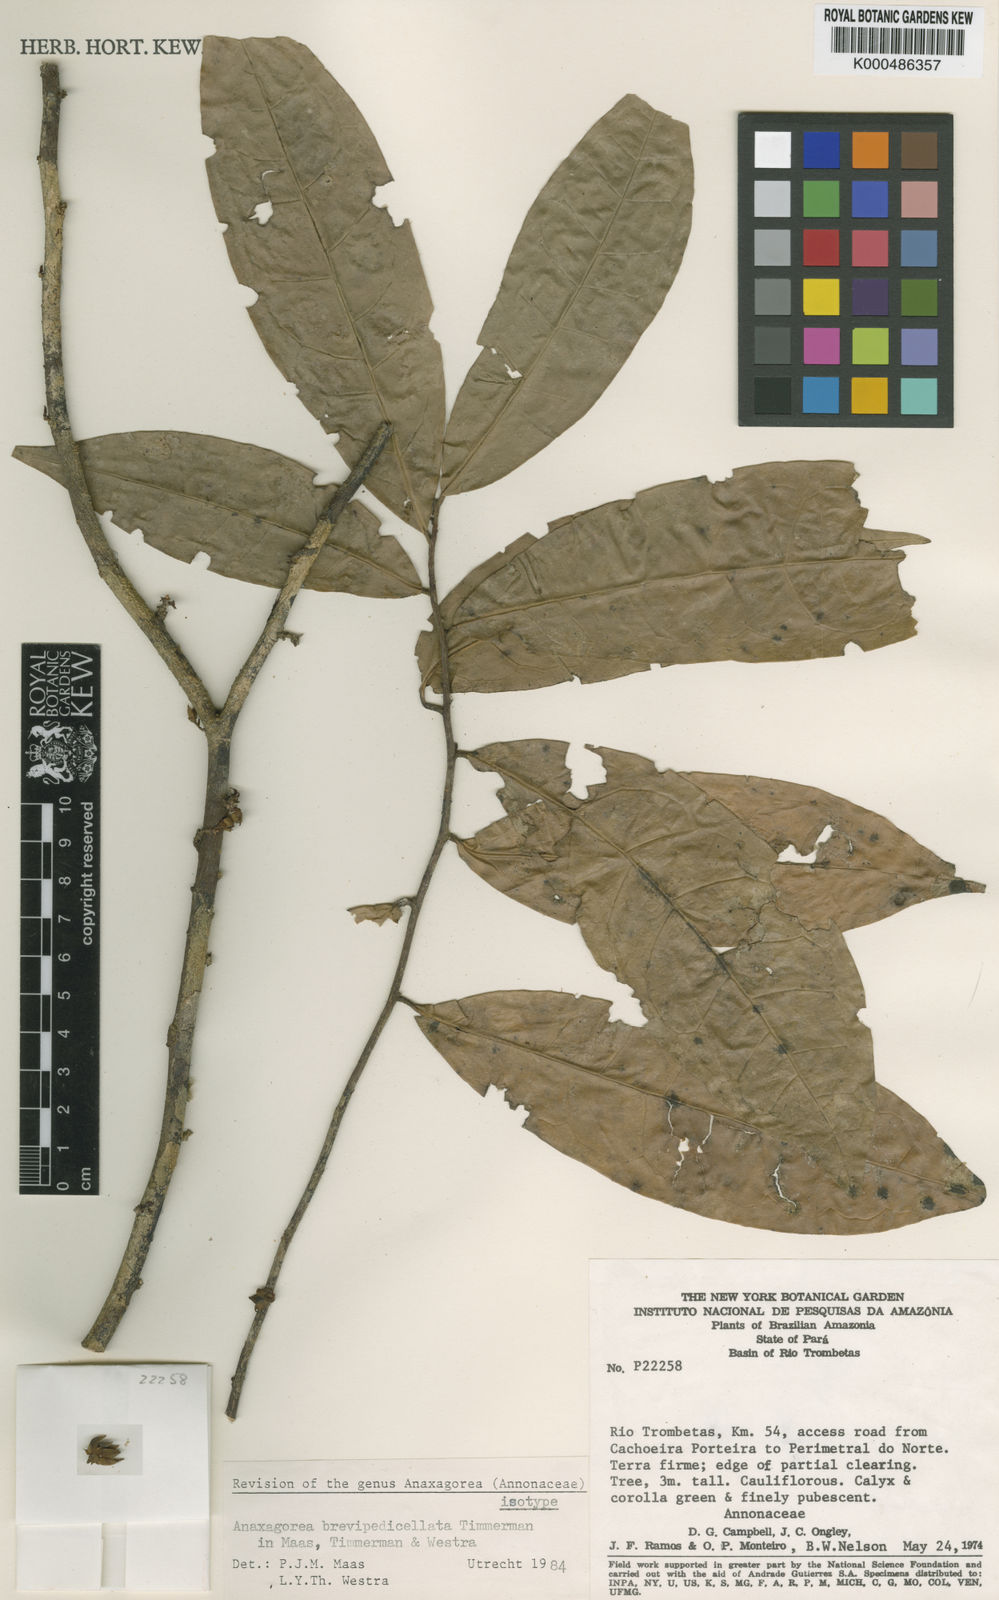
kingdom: Plantae
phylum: Tracheophyta
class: Magnoliopsida
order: Magnoliales
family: Annonaceae
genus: Anaxagorea
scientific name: Anaxagorea brevipedicellata
